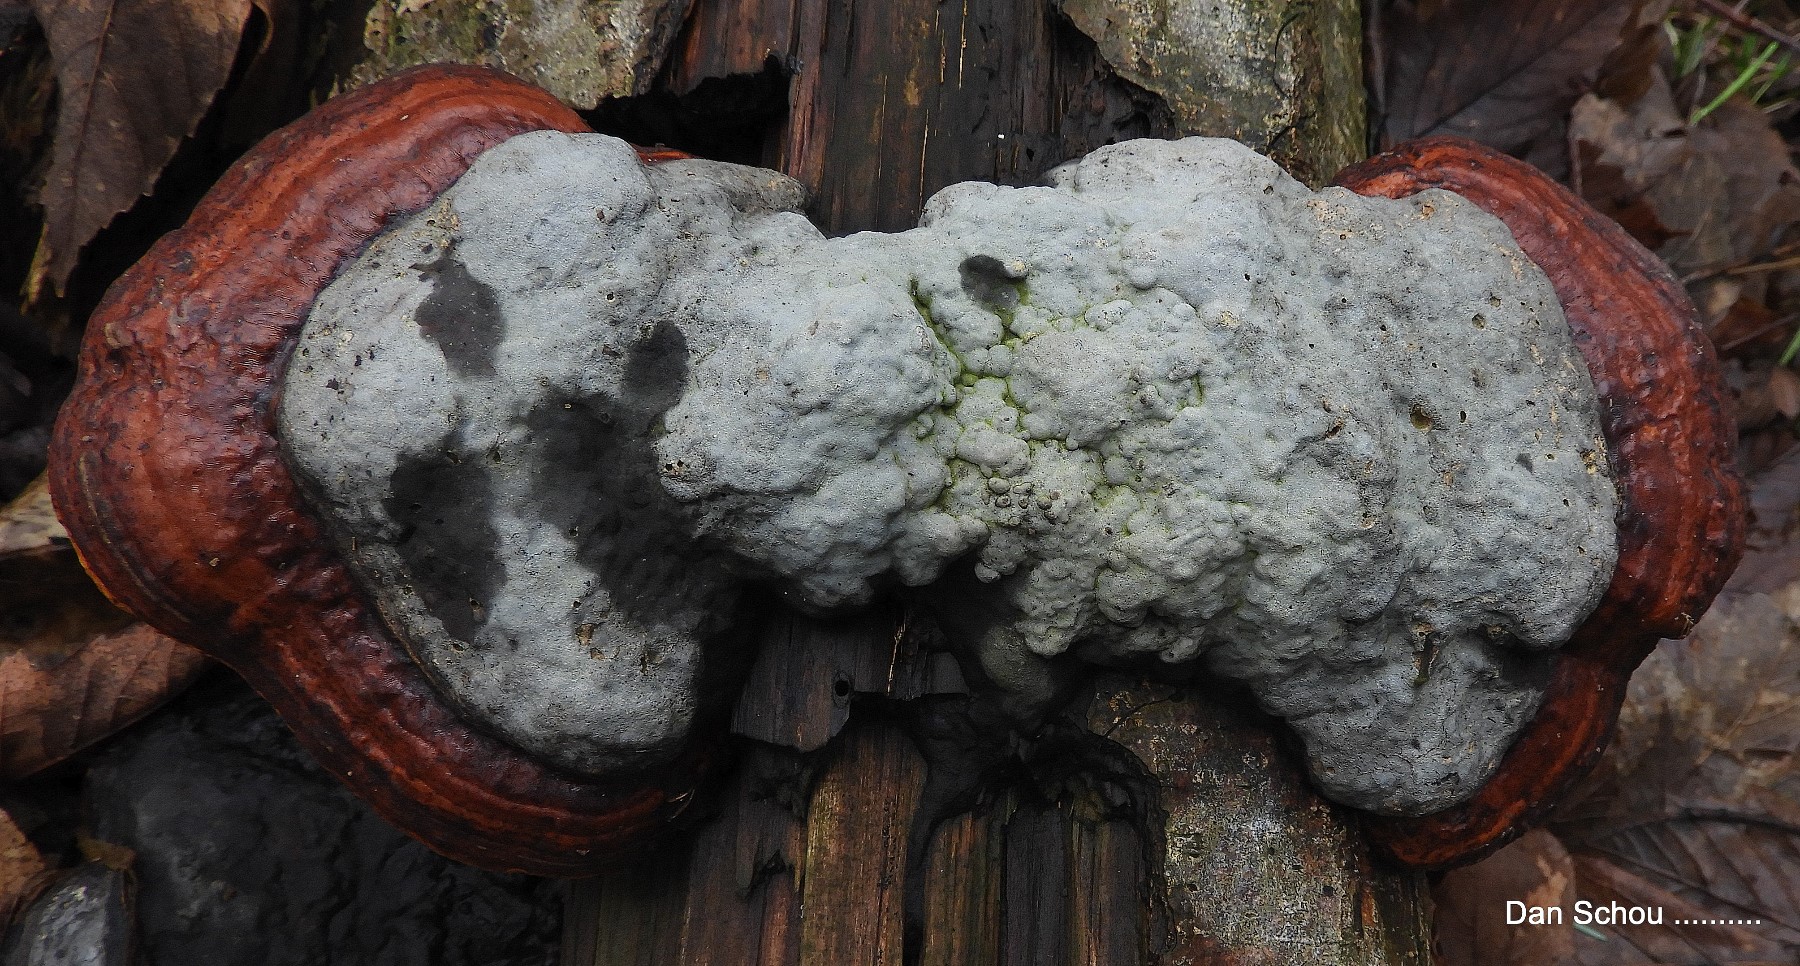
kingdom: Fungi
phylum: Basidiomycota
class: Agaricomycetes
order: Polyporales
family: Fomitopsidaceae
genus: Fomitopsis
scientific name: Fomitopsis pinicola
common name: randbæltet hovporesvamp
